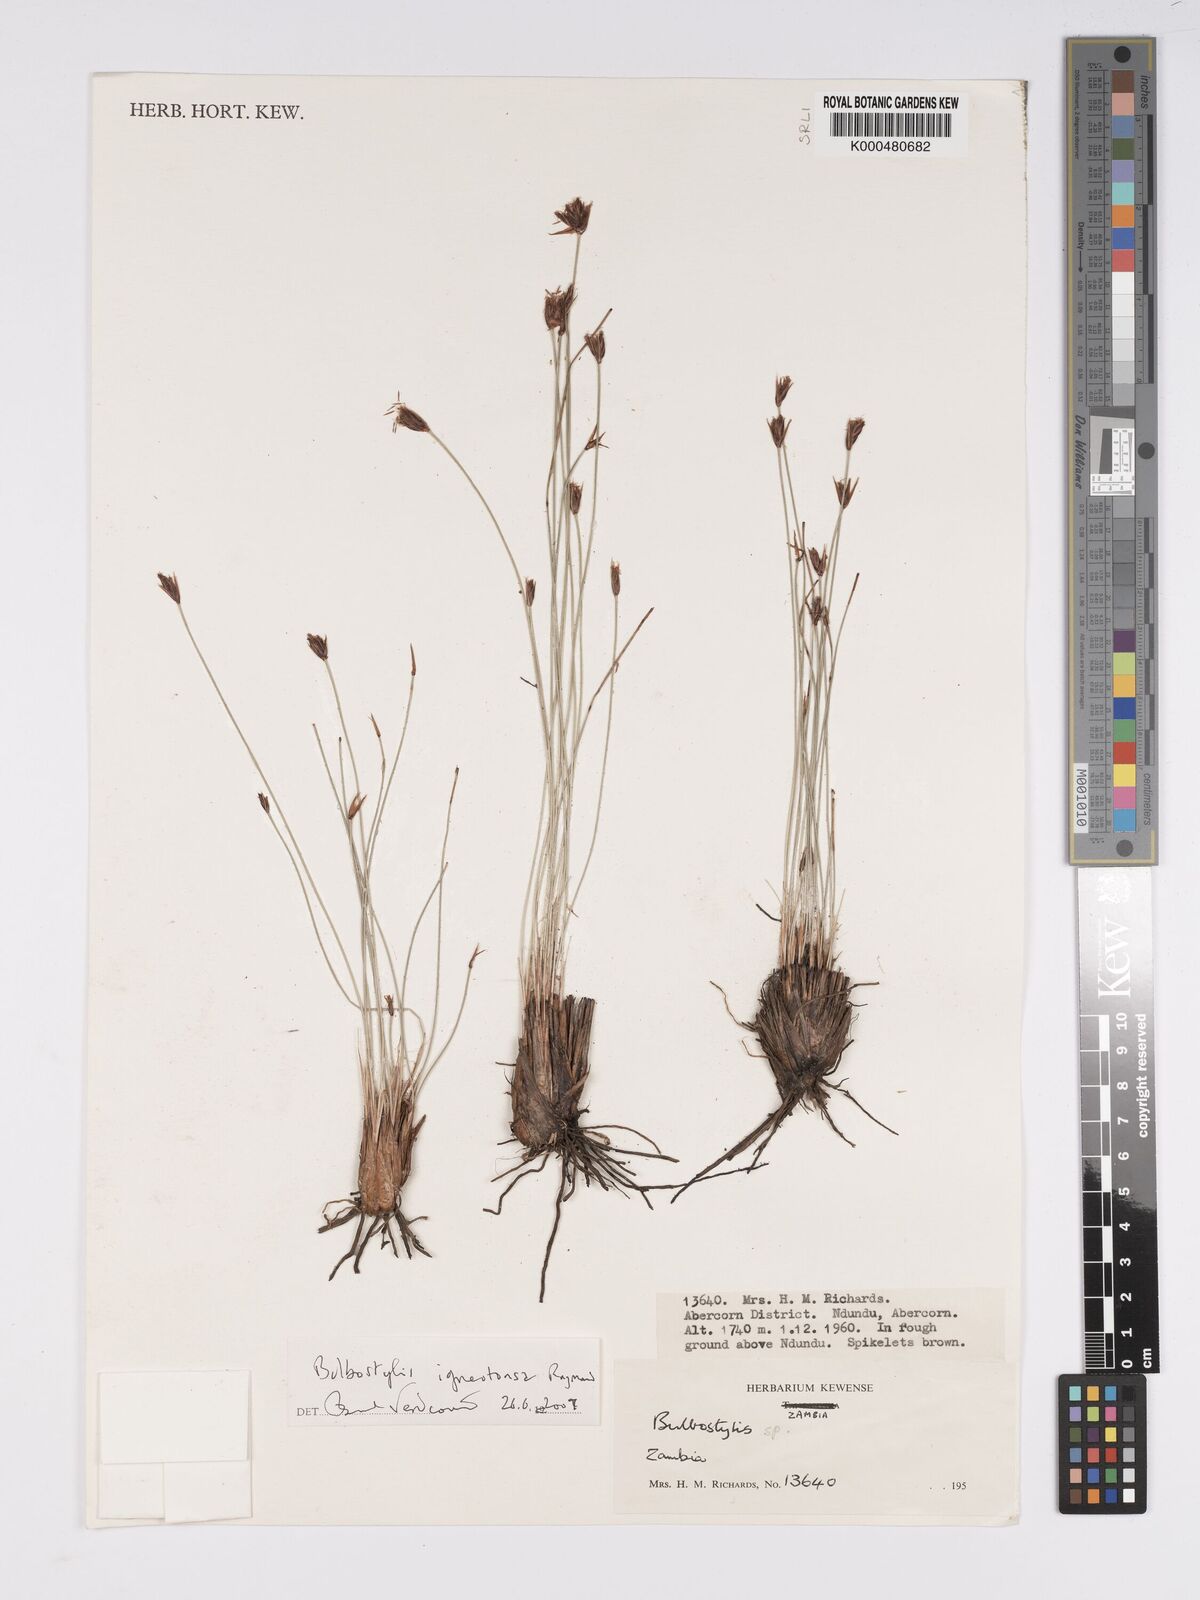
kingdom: Plantae
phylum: Tracheophyta
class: Liliopsida
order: Poales
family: Cyperaceae
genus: Bulbostylis
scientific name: Bulbostylis igneotonsa
